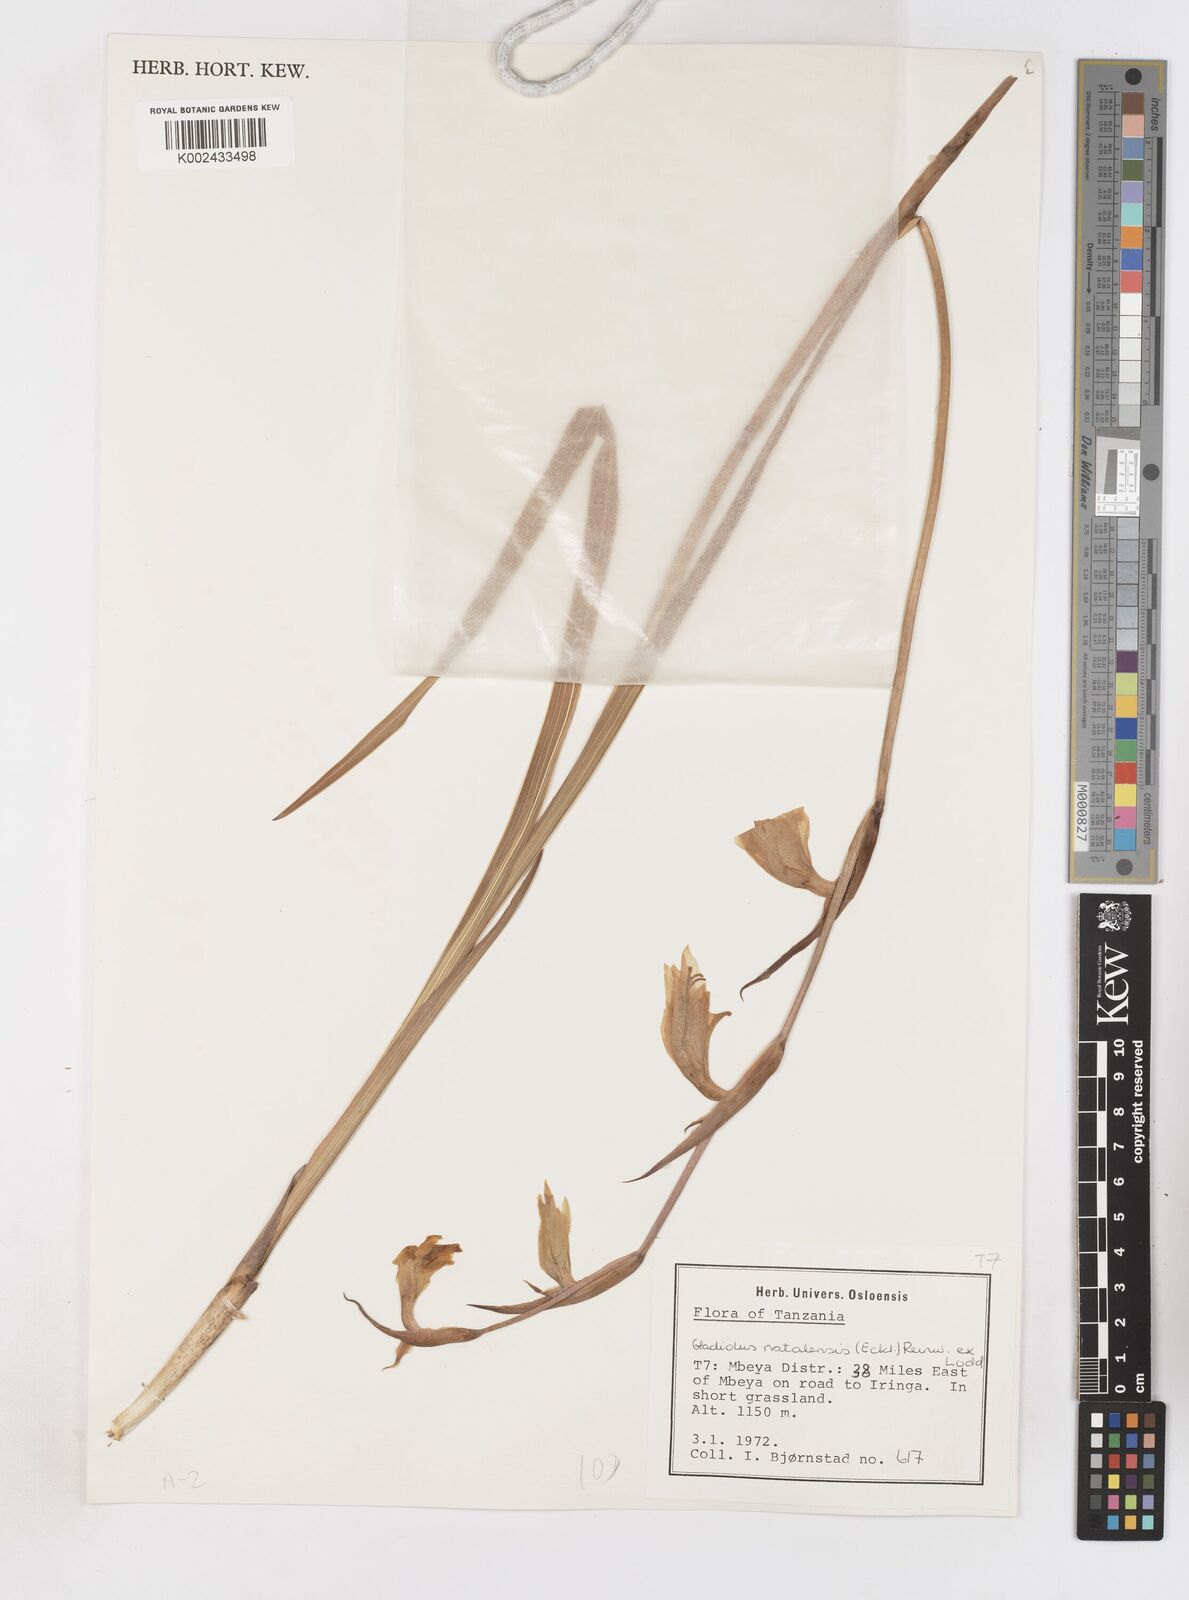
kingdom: Plantae
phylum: Tracheophyta
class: Liliopsida
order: Asparagales
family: Iridaceae
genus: Gladiolus
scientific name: Gladiolus dalenii
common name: Cornflag
